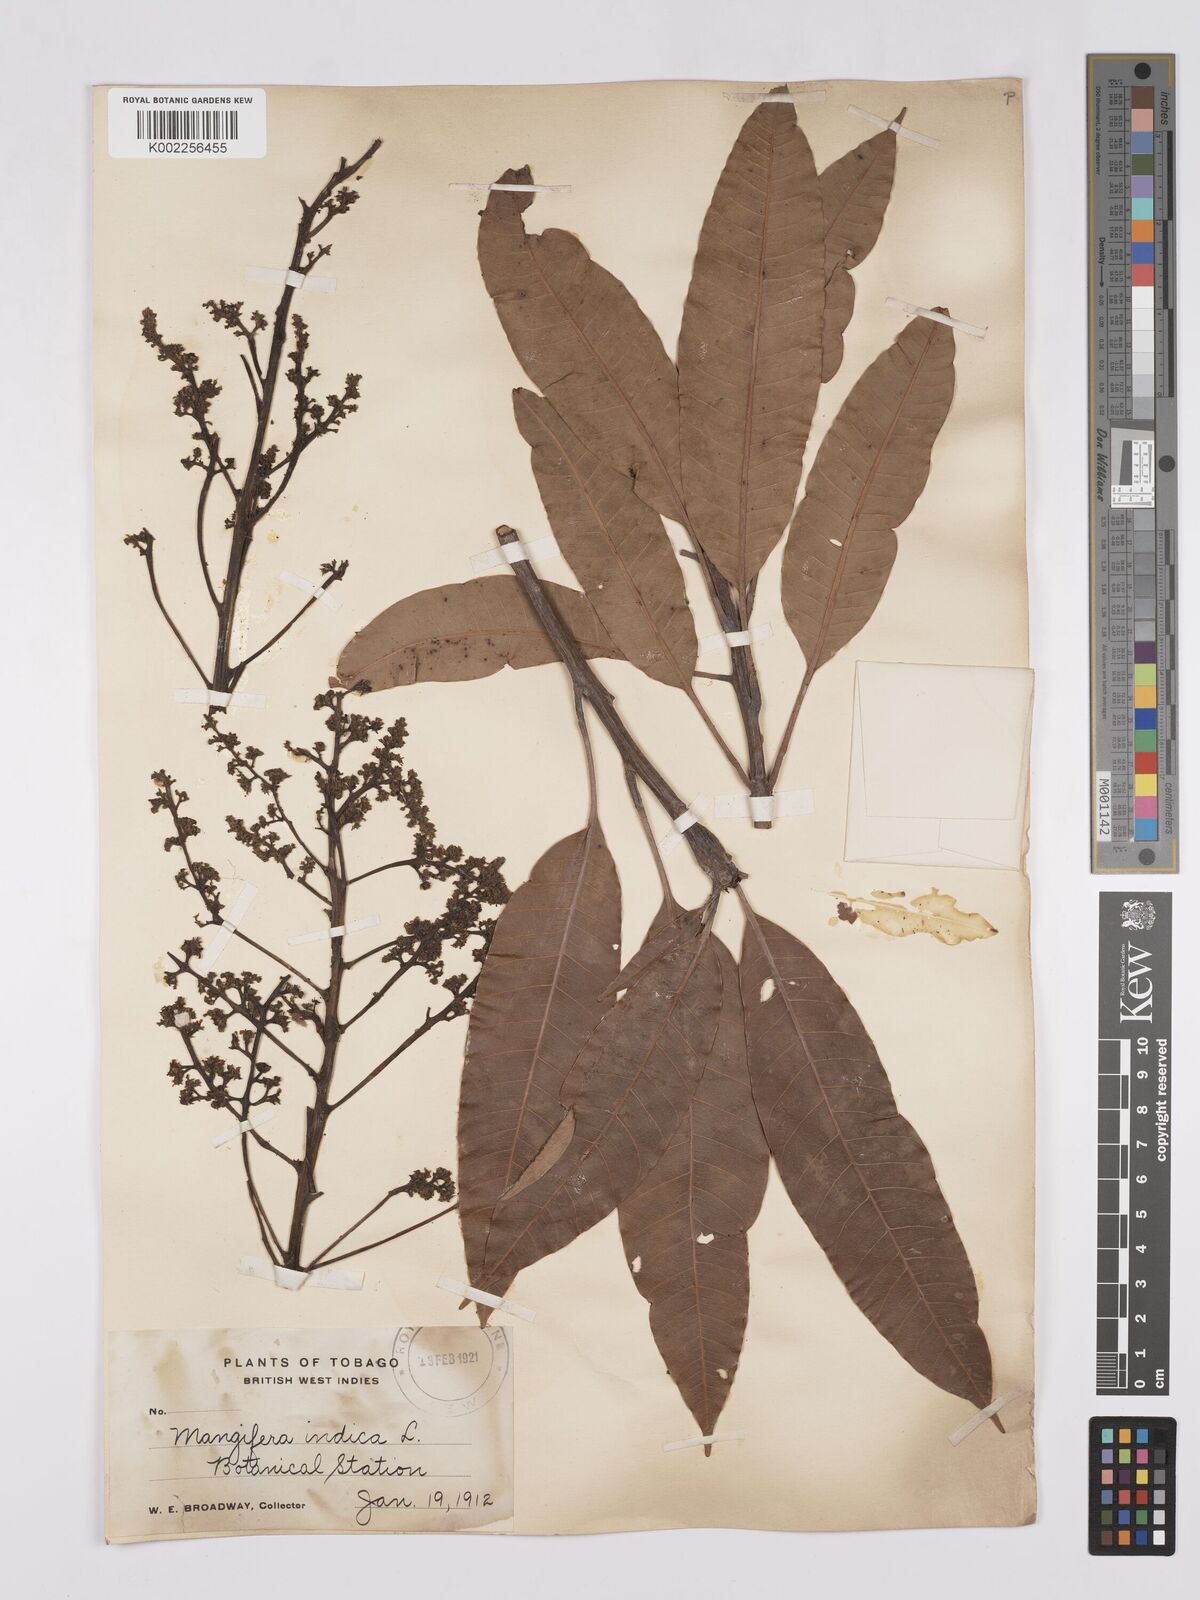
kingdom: Plantae
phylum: Tracheophyta
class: Magnoliopsida
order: Sapindales
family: Anacardiaceae
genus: Mangifera
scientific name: Mangifera indica
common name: Mango
